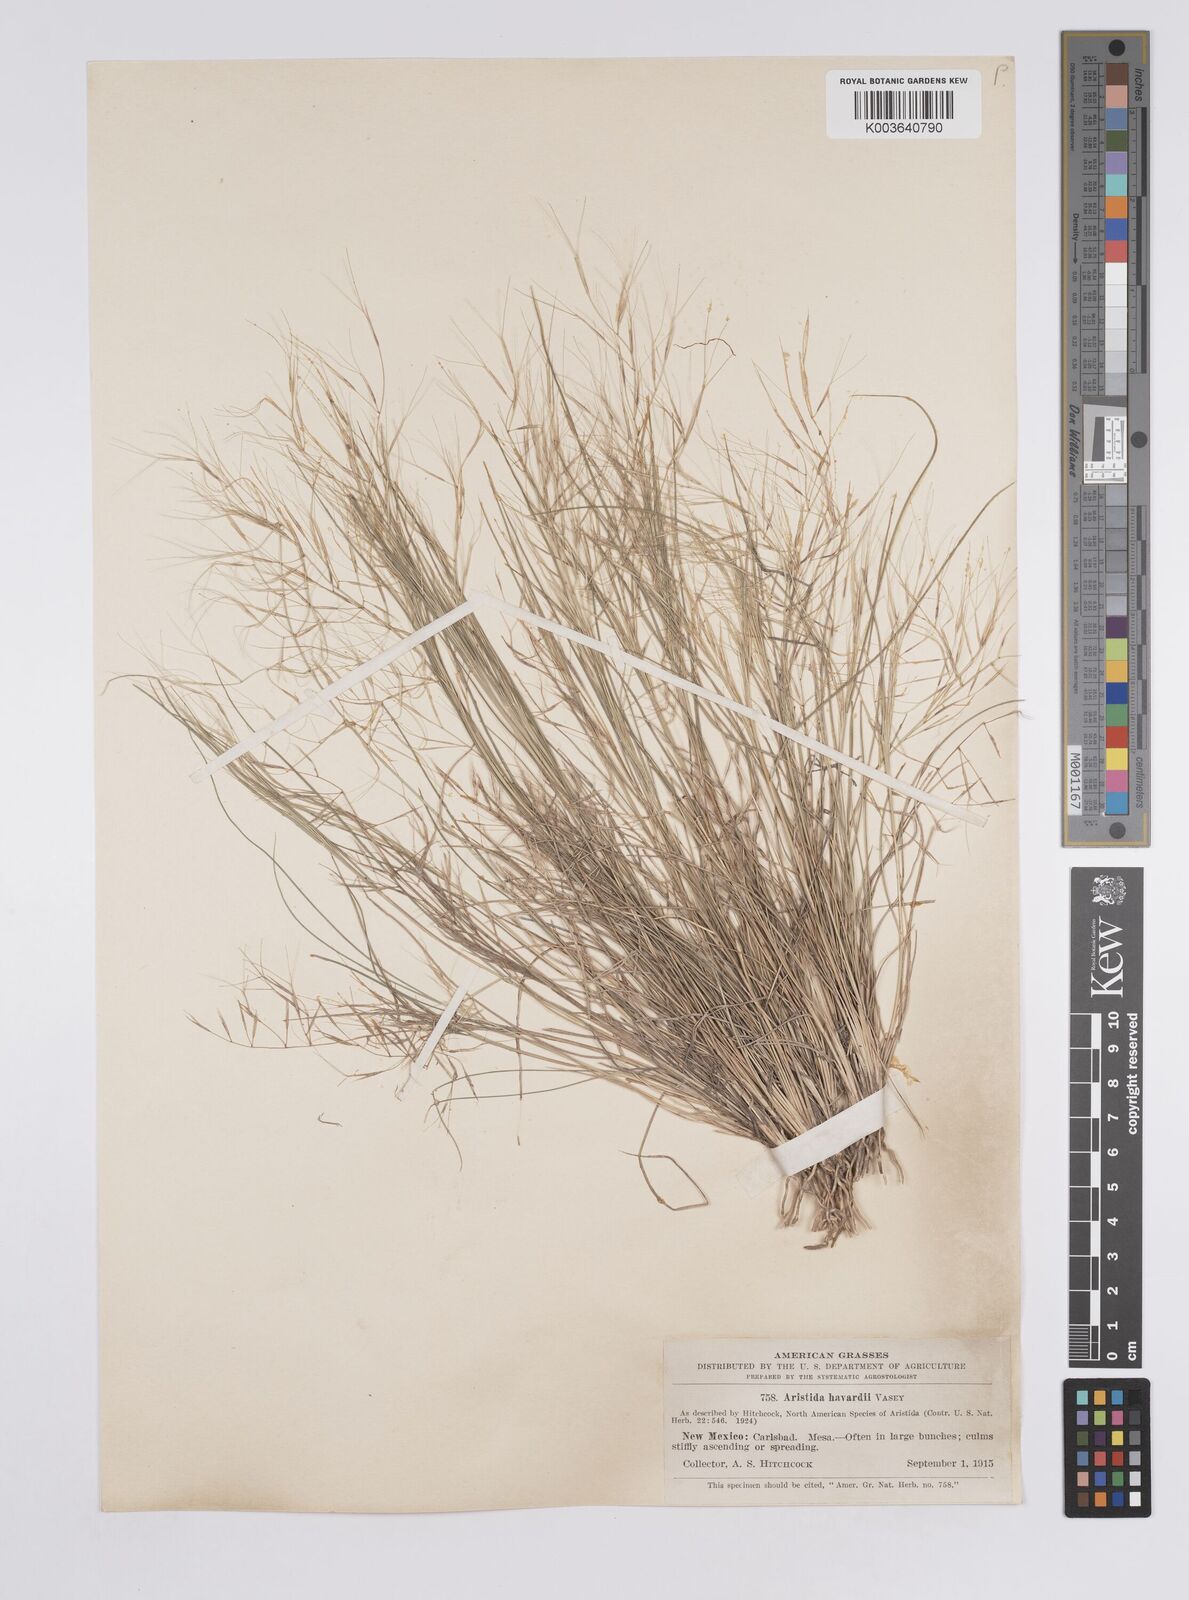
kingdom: Plantae
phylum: Tracheophyta
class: Liliopsida
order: Poales
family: Poaceae
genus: Aristida
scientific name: Aristida havardii
